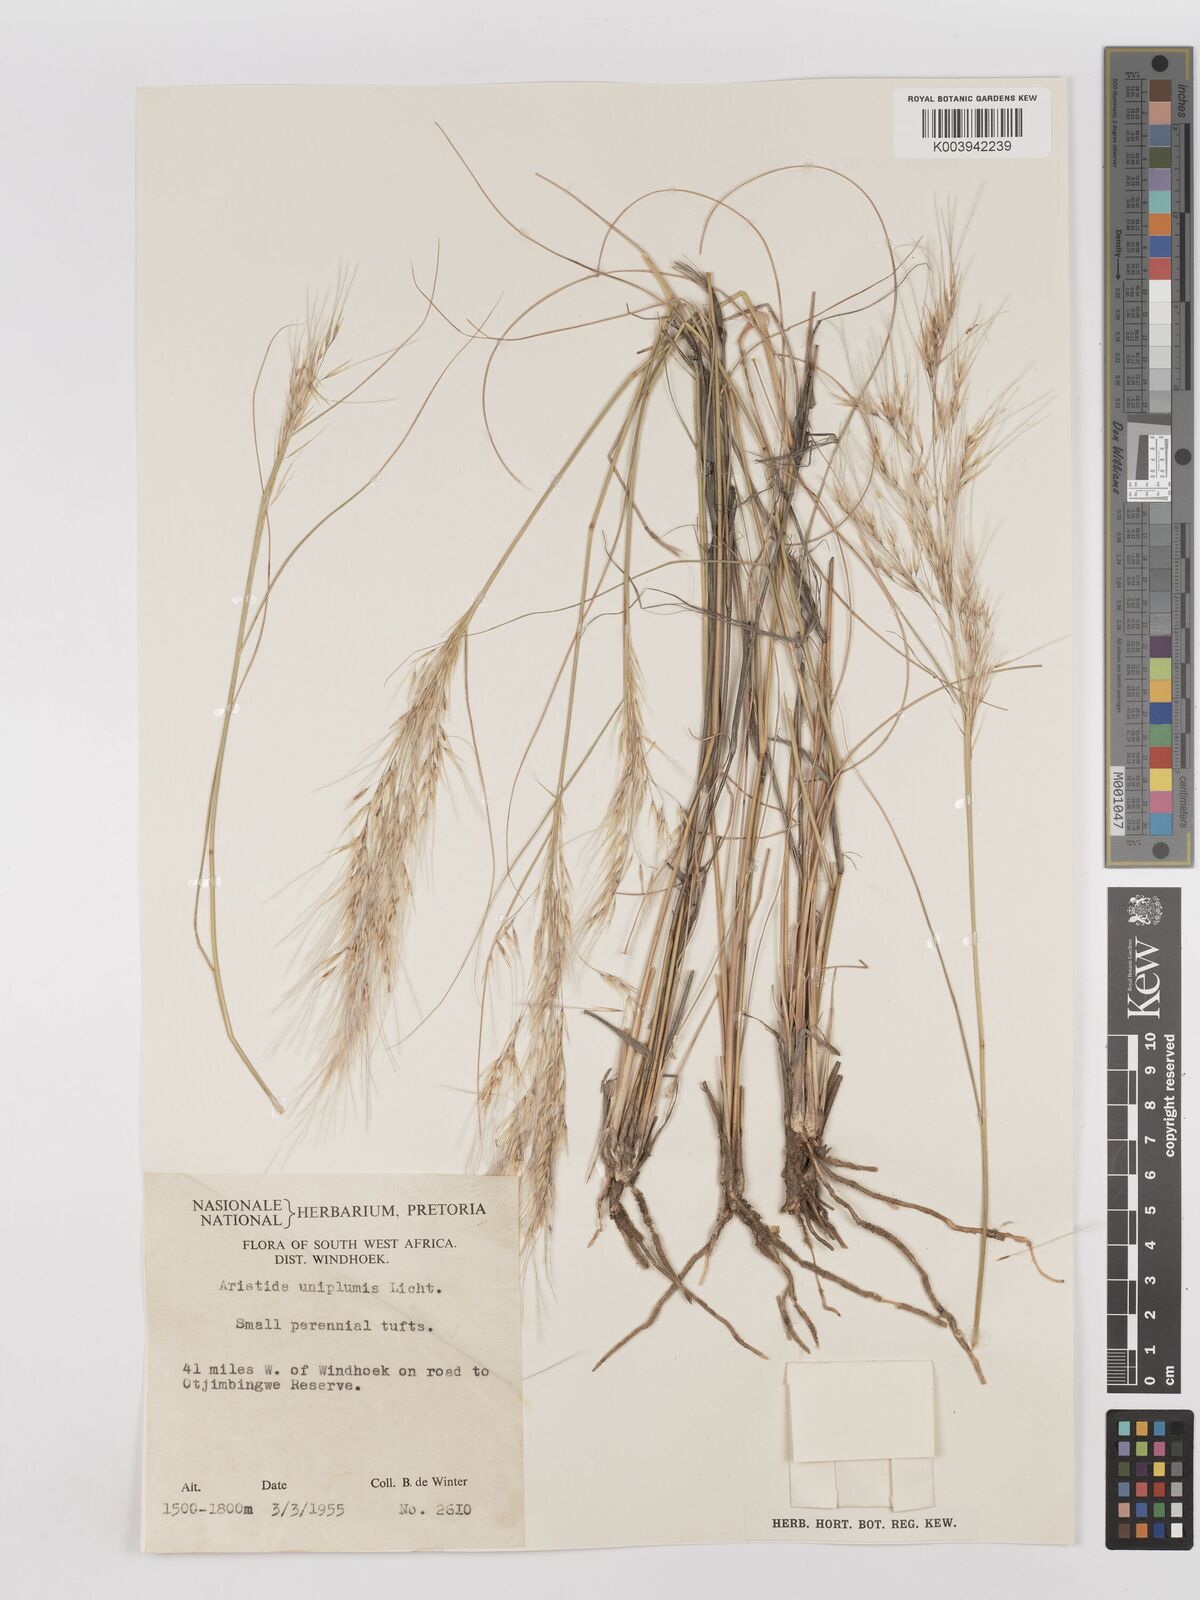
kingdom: Plantae
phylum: Tracheophyta
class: Liliopsida
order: Poales
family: Poaceae
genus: Stipagrostis
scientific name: Stipagrostis uniplumis
